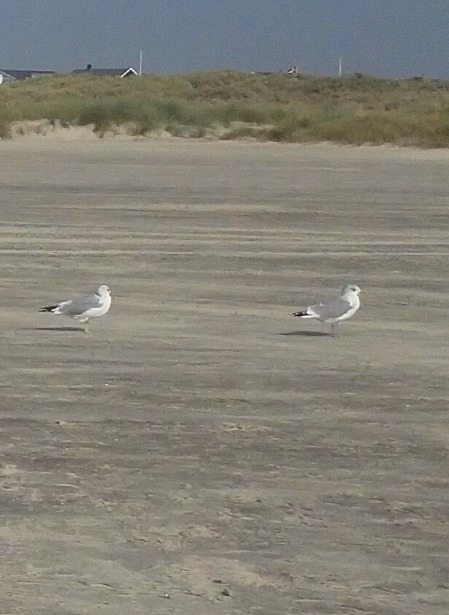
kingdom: Animalia
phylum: Chordata
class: Aves
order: Charadriiformes
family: Laridae
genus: Larus
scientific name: Larus canus
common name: Stormmåge
